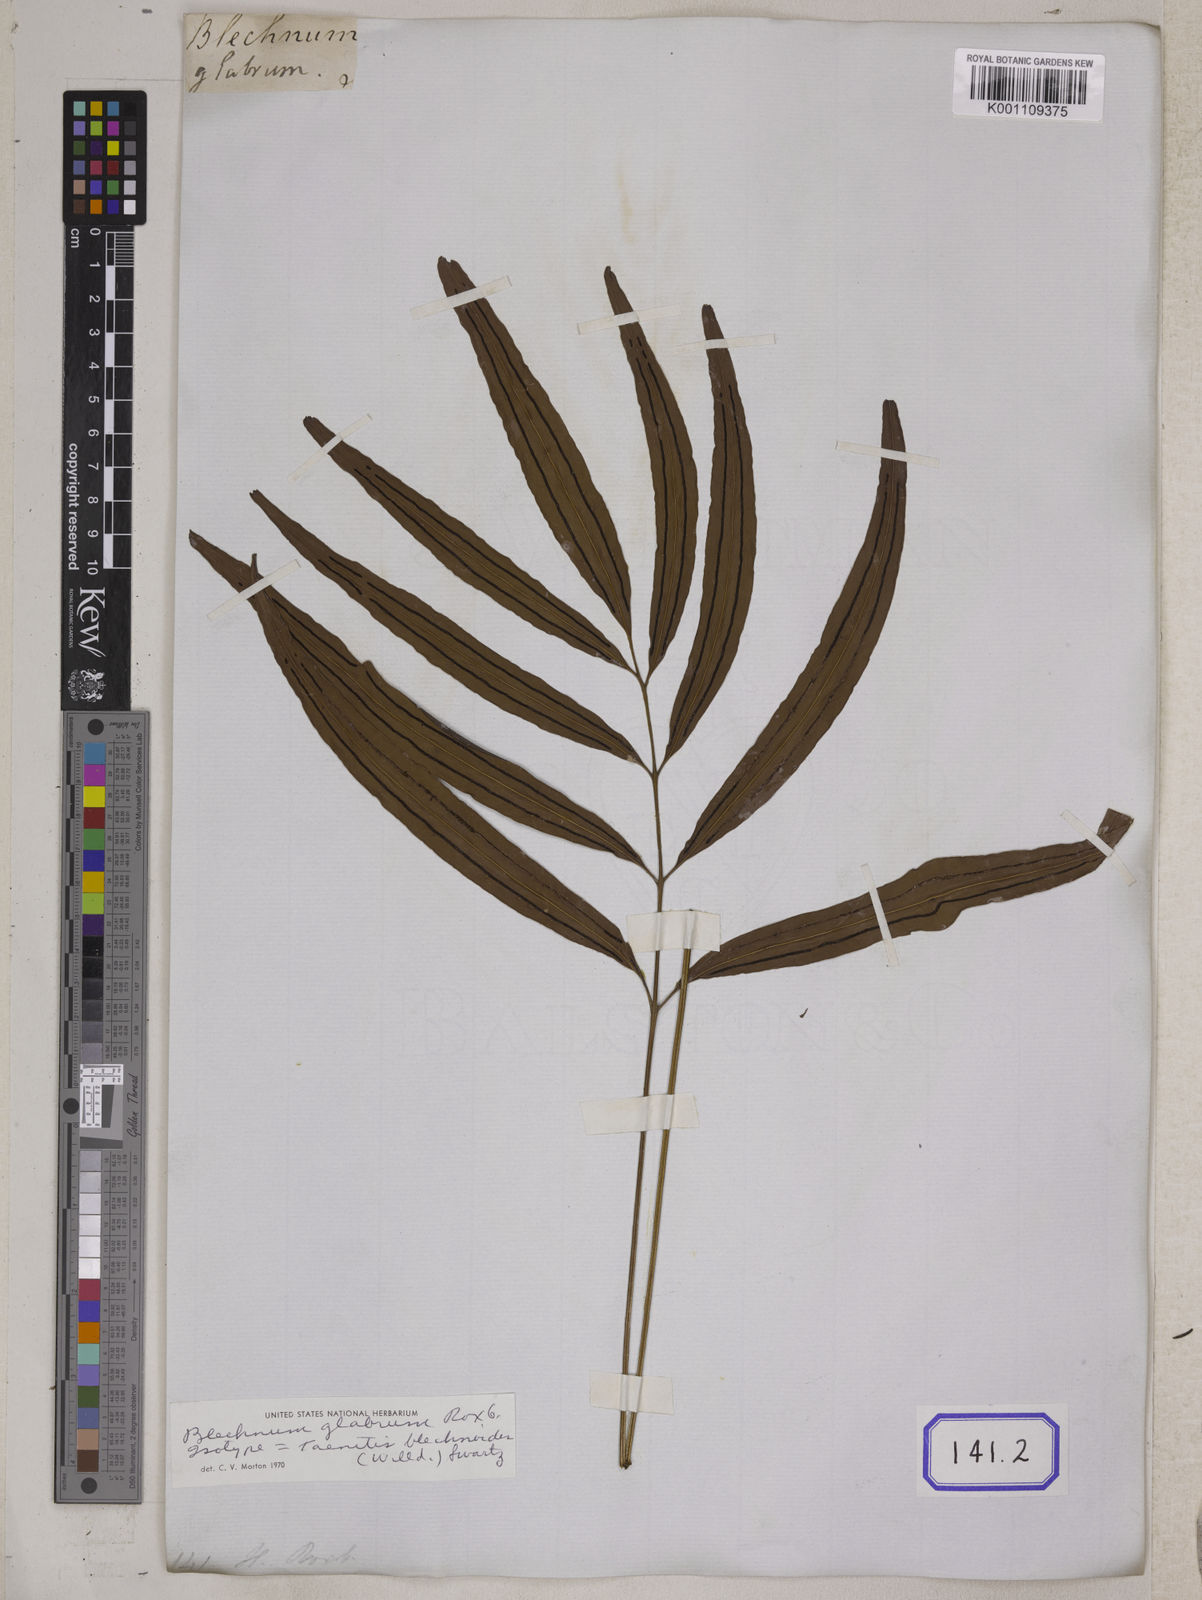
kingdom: Plantae
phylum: Tracheophyta
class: Polypodiopsida
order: Polypodiales
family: Pteridaceae
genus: Taenitis
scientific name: Taenitis blechnoides
